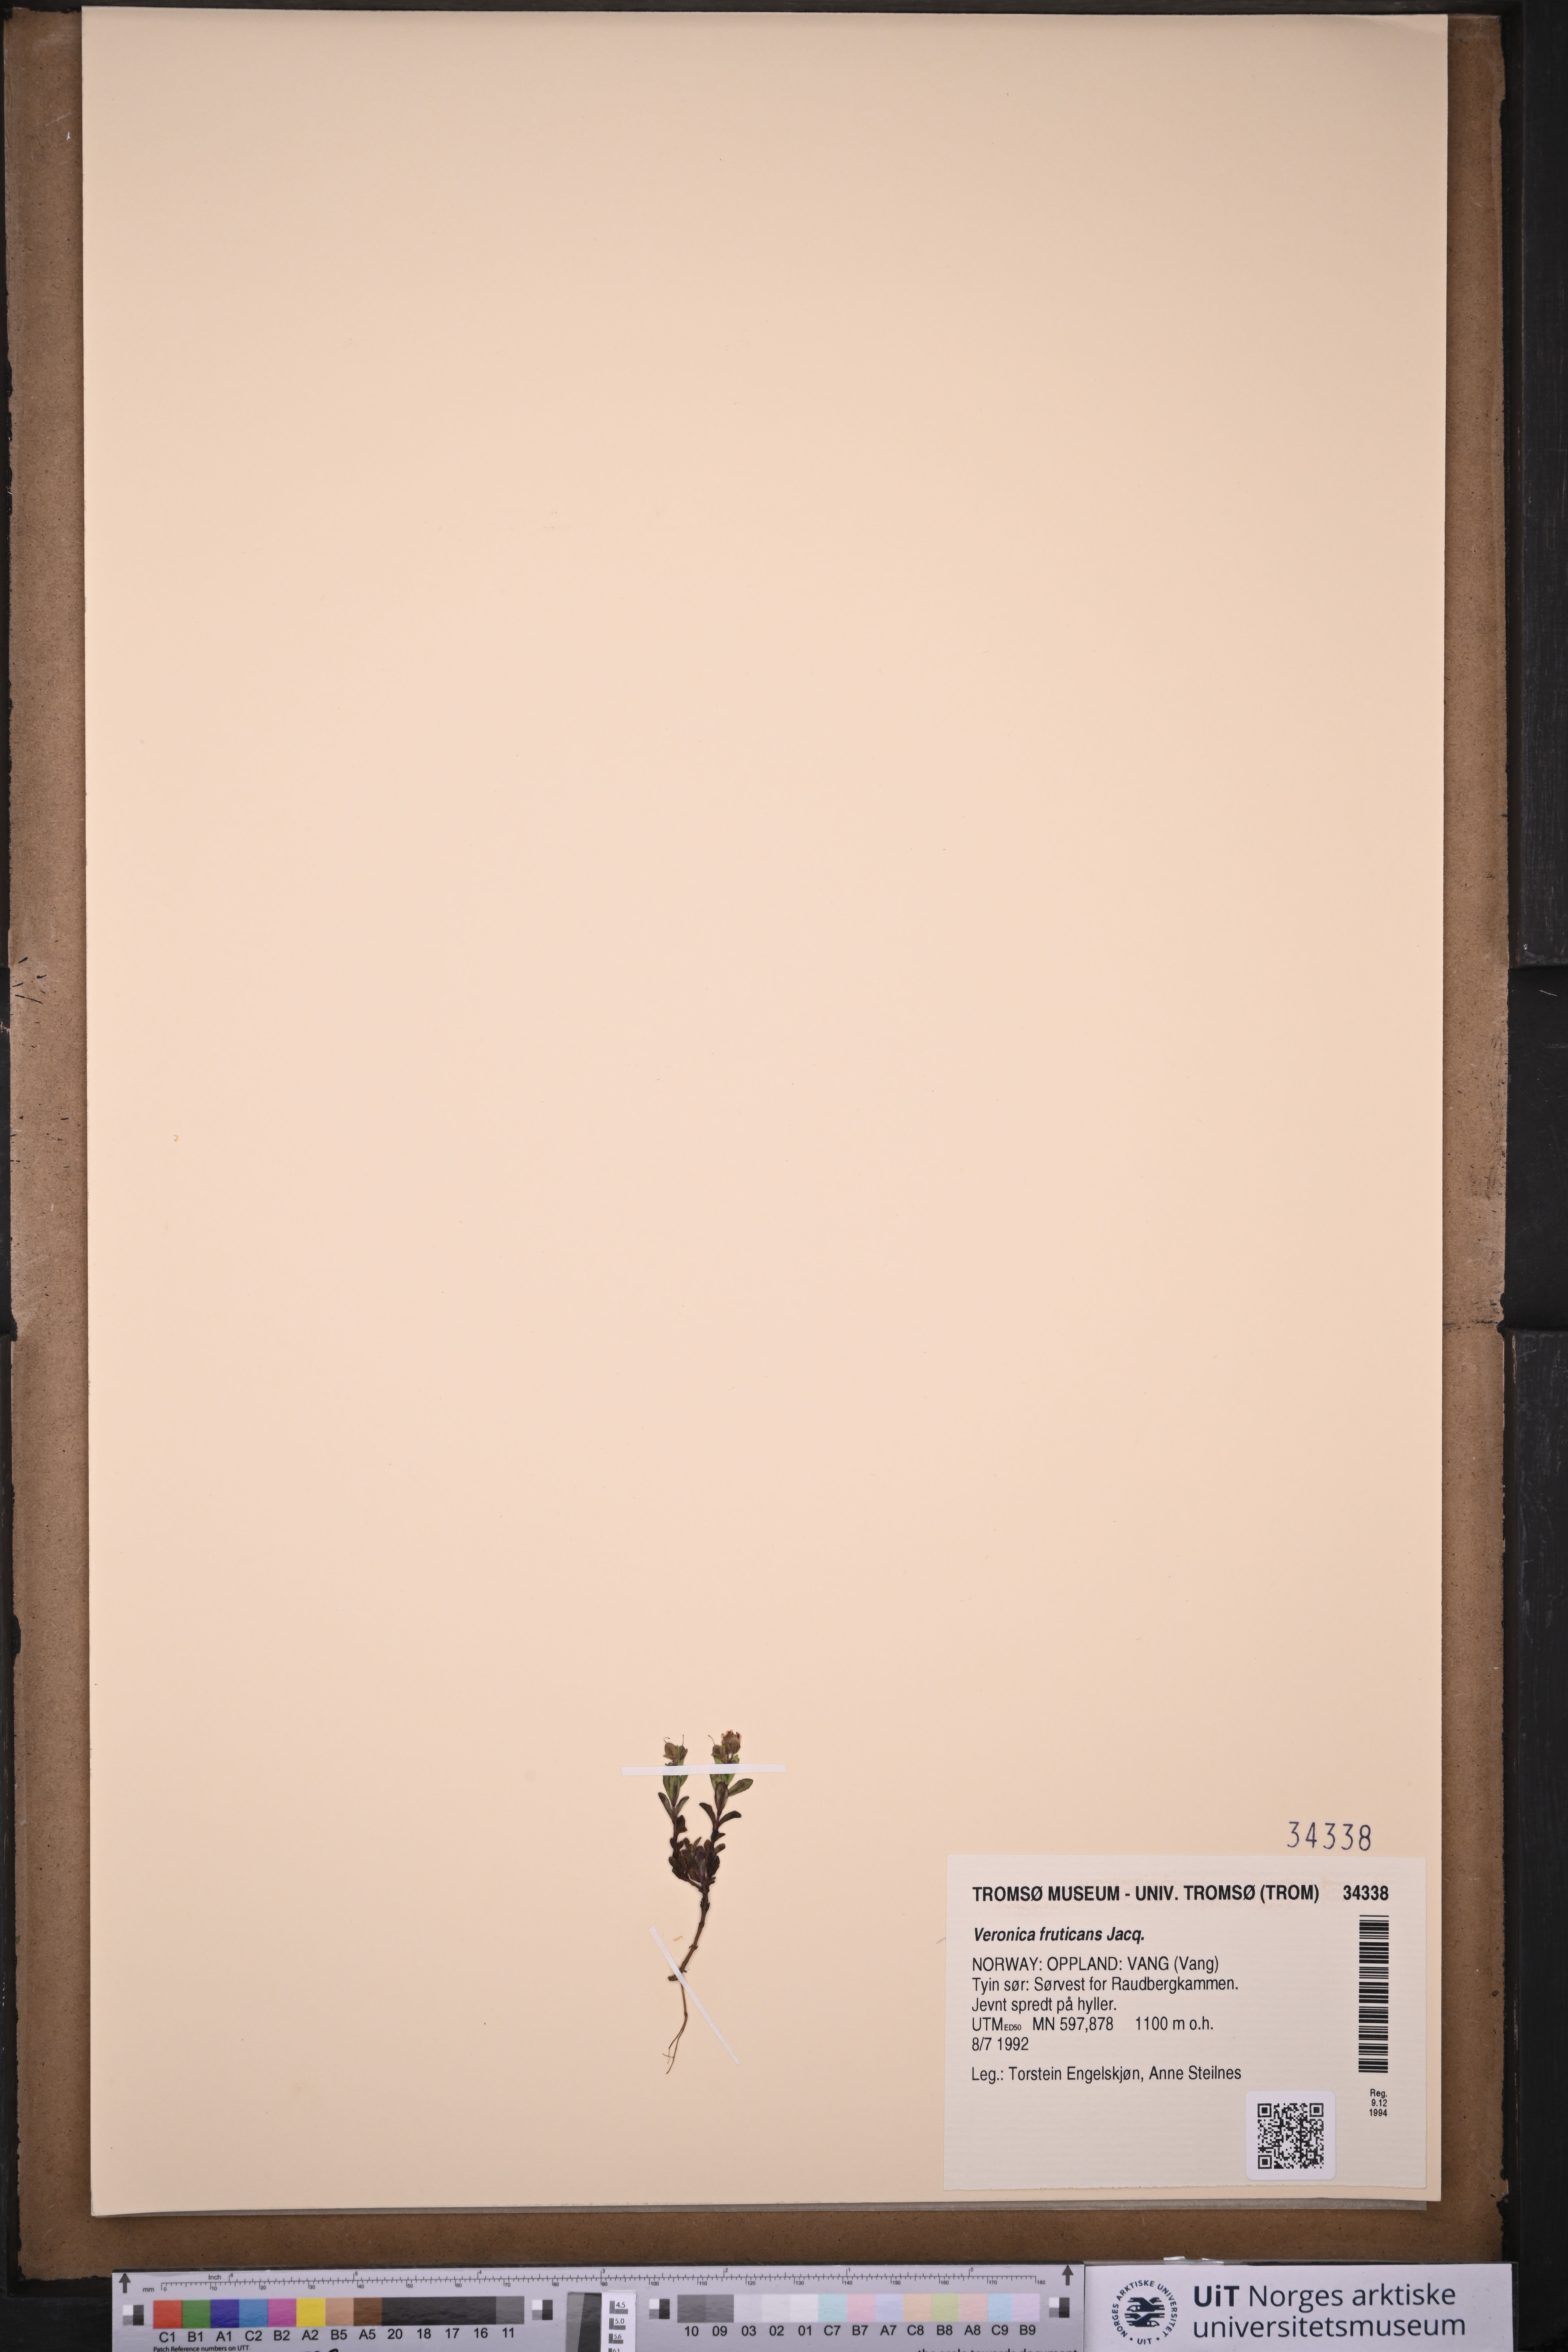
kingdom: Plantae
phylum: Tracheophyta
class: Magnoliopsida
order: Lamiales
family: Plantaginaceae
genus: Veronica
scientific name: Veronica fruticans
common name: Rock speedwell
